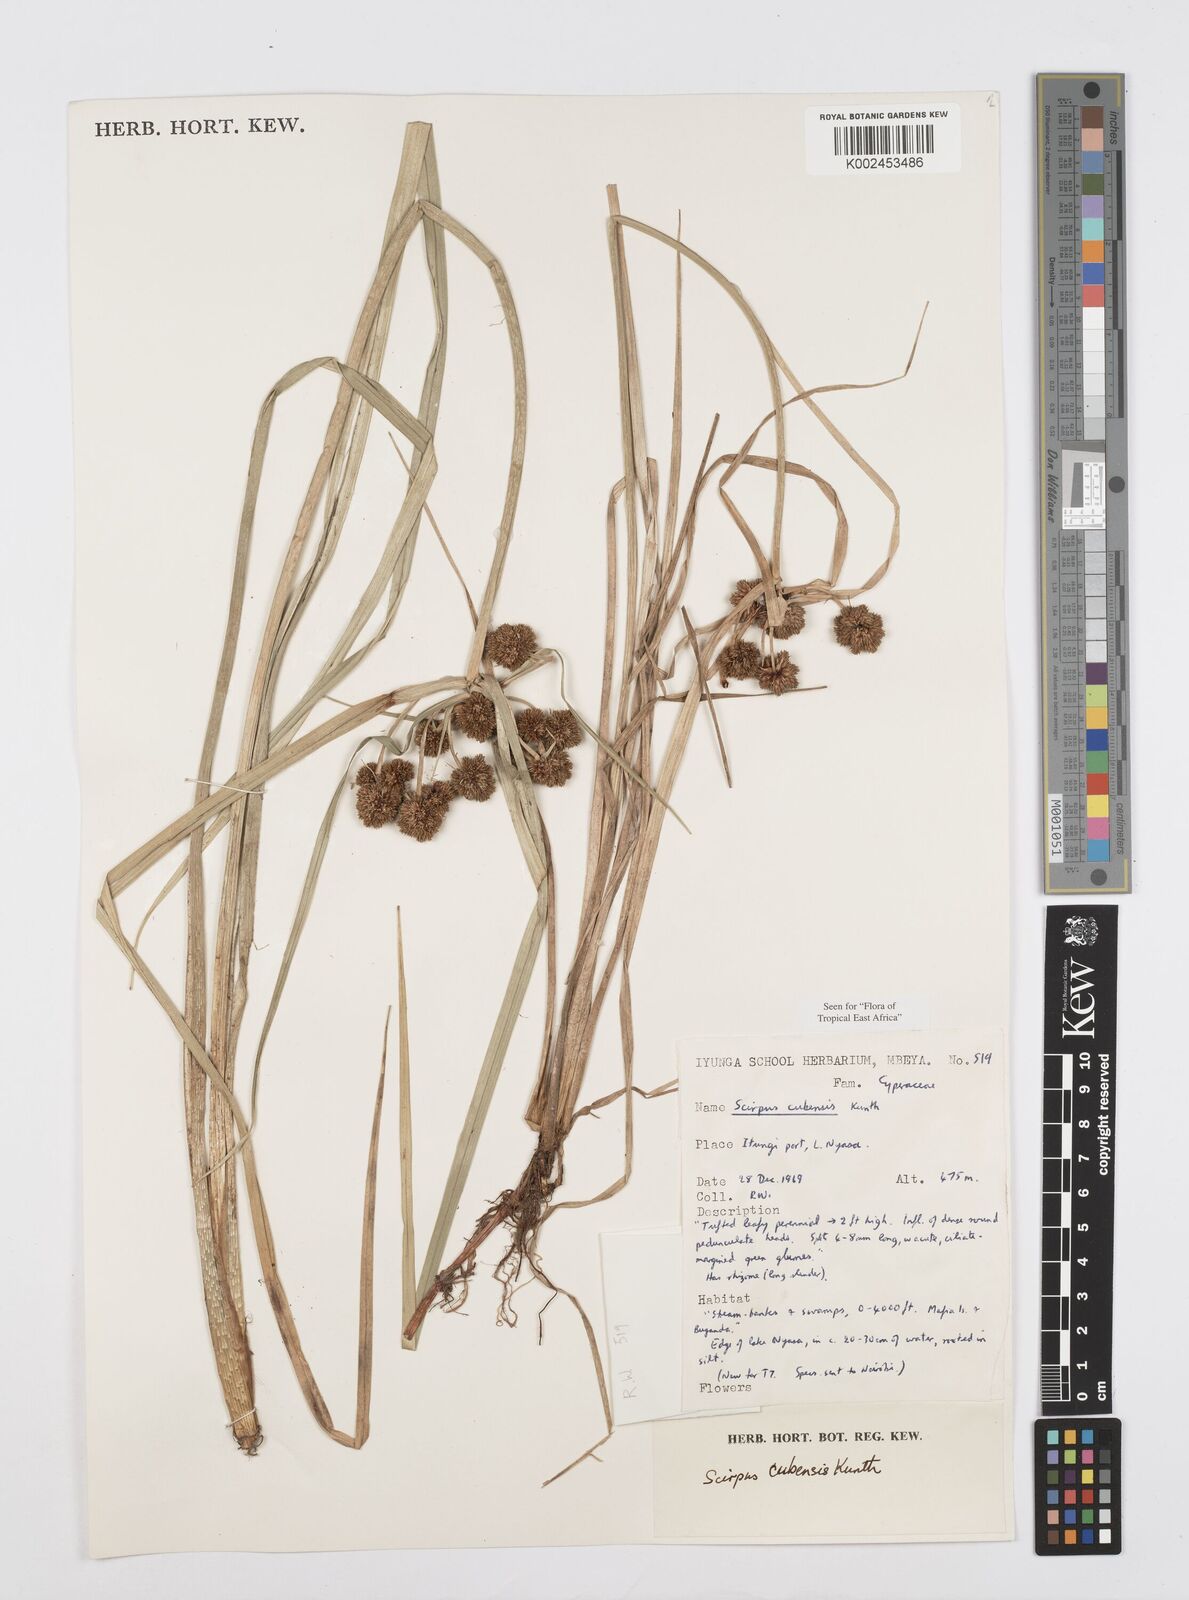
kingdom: Plantae
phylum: Tracheophyta
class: Liliopsida
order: Poales
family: Cyperaceae
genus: Cyperus
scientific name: Cyperus elegans
